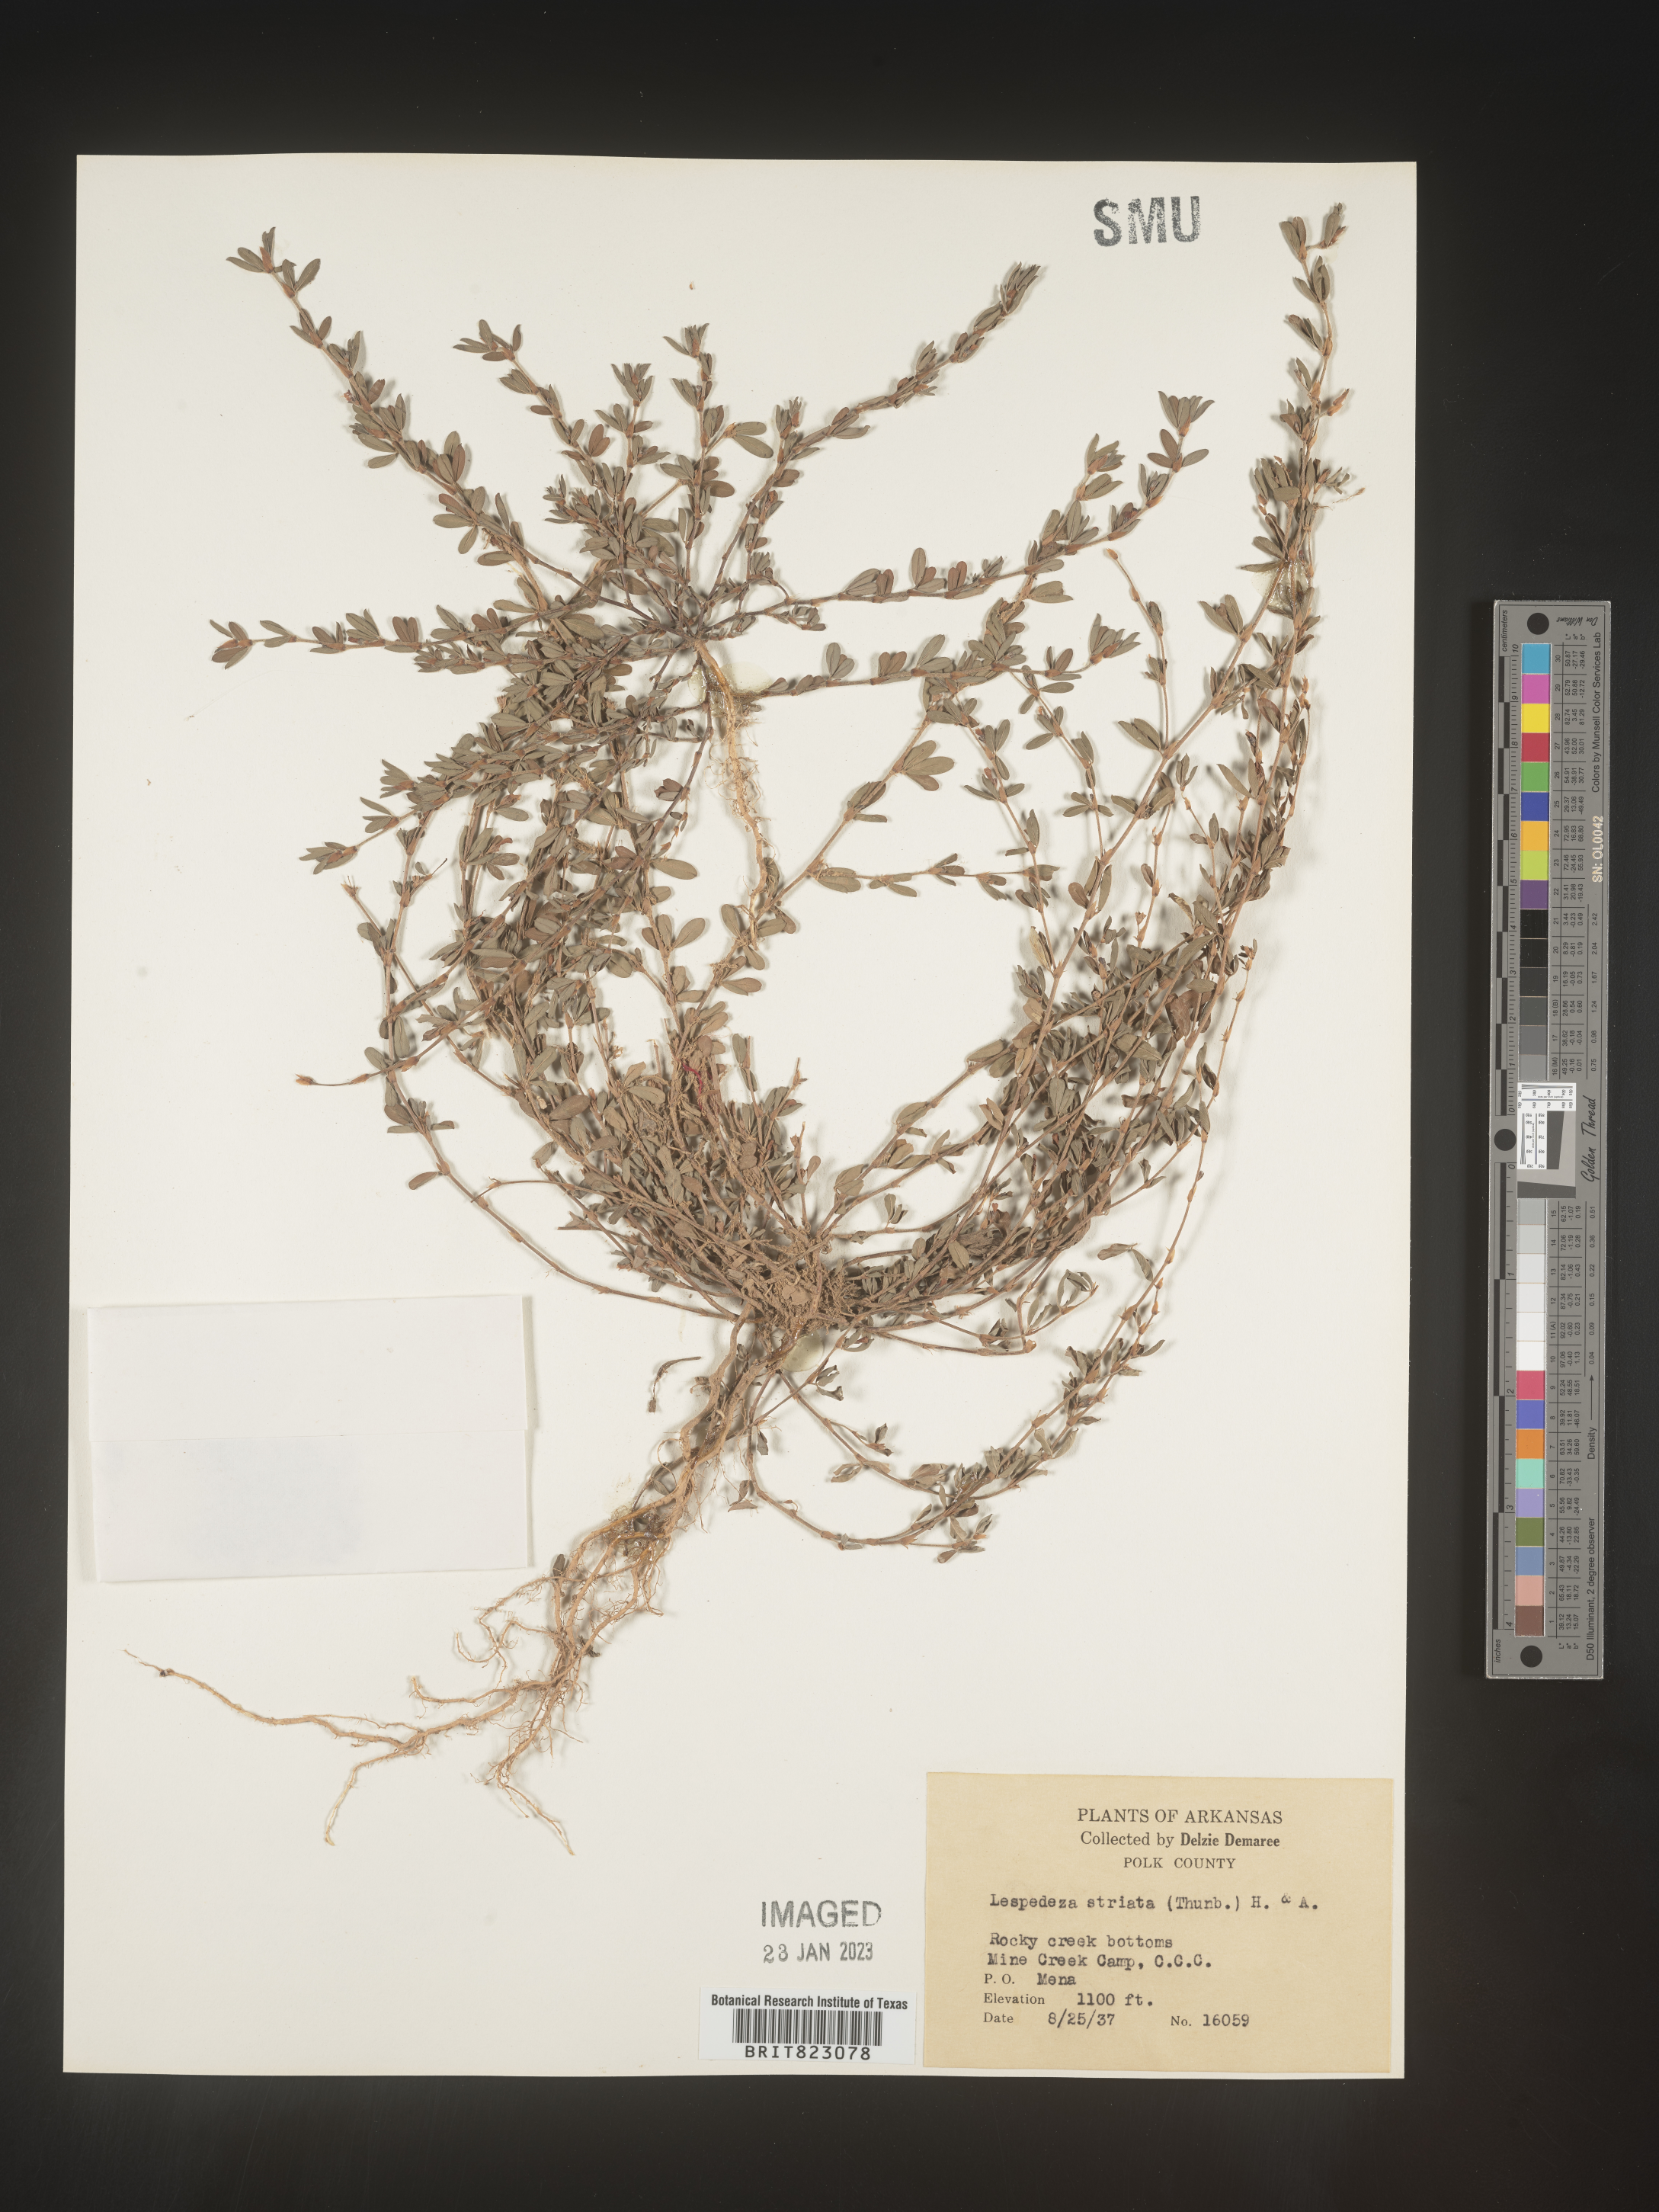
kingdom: Plantae
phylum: Tracheophyta
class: Magnoliopsida
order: Fabales
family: Fabaceae
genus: Kummerowia
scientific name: Kummerowia striata
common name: Japanese clover
